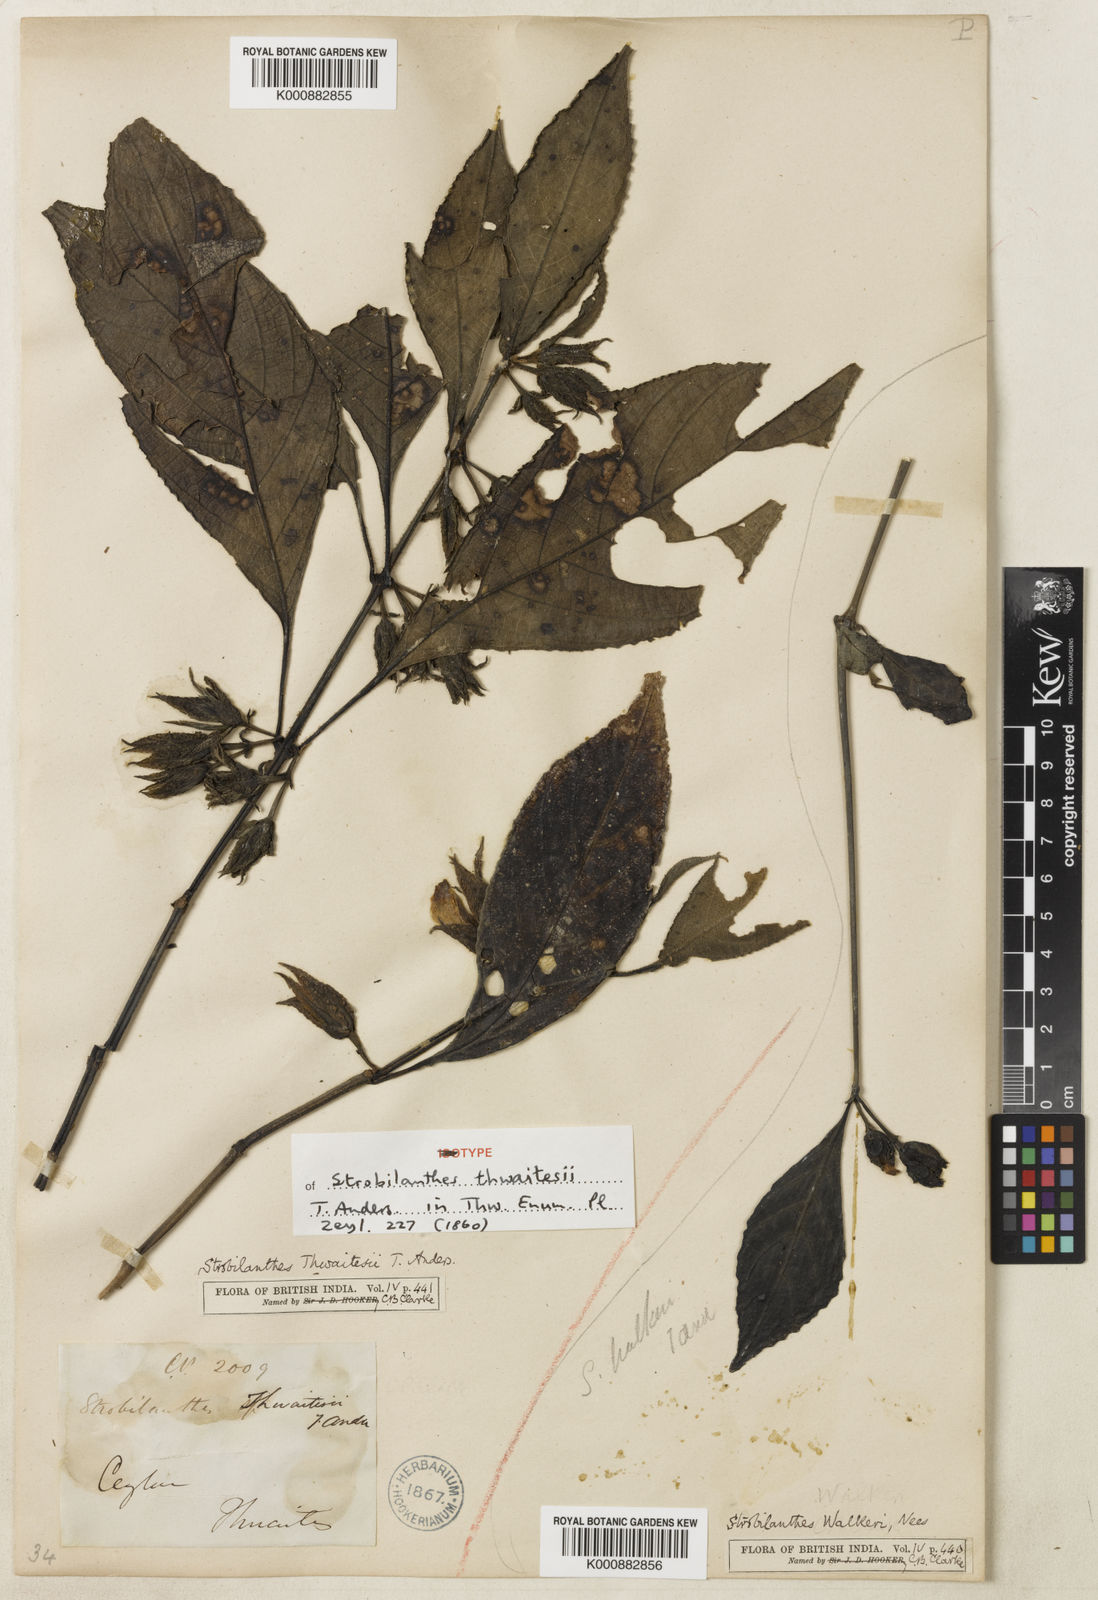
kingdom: Plantae
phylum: Tracheophyta
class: Magnoliopsida
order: Lamiales
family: Acanthaceae
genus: Strobilanthes
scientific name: Strobilanthes thwaitesii
